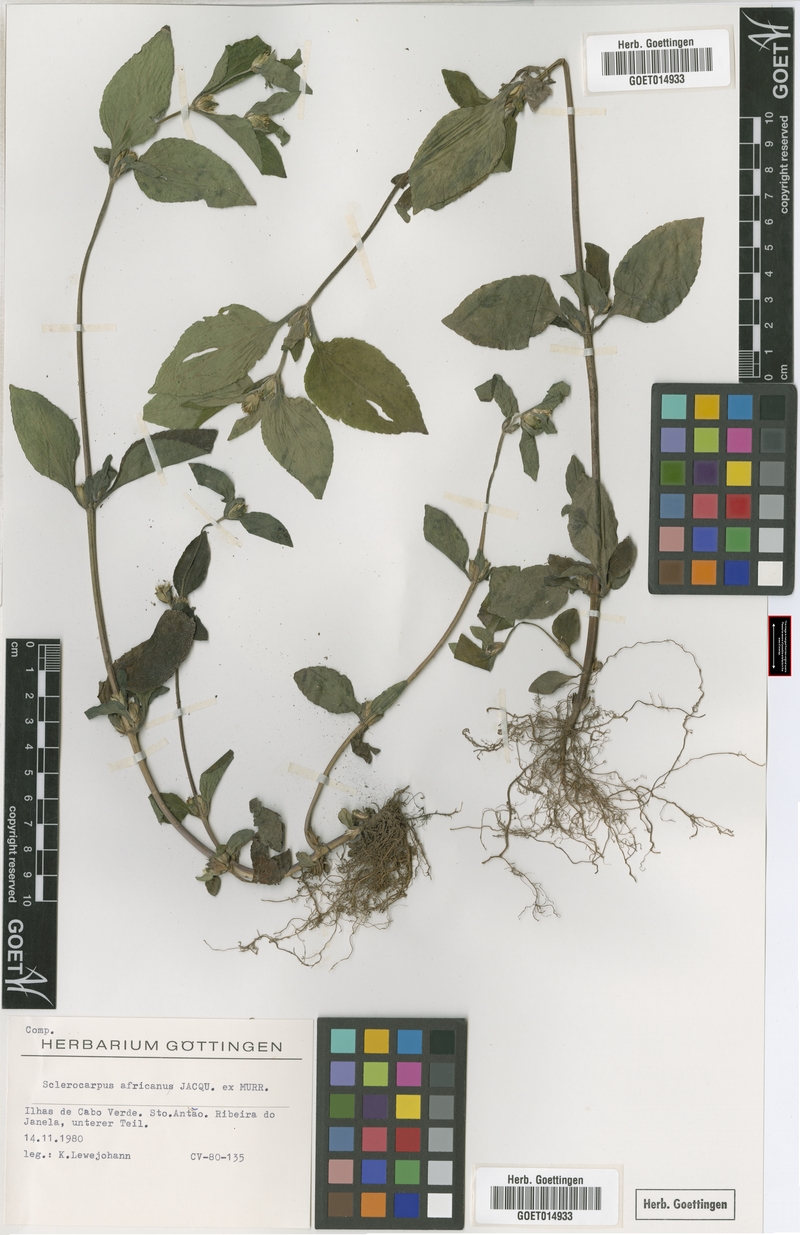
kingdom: Plantae
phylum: Tracheophyta
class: Magnoliopsida
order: Asterales
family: Asteraceae
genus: Sclerocarpus
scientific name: Sclerocarpus africanus
